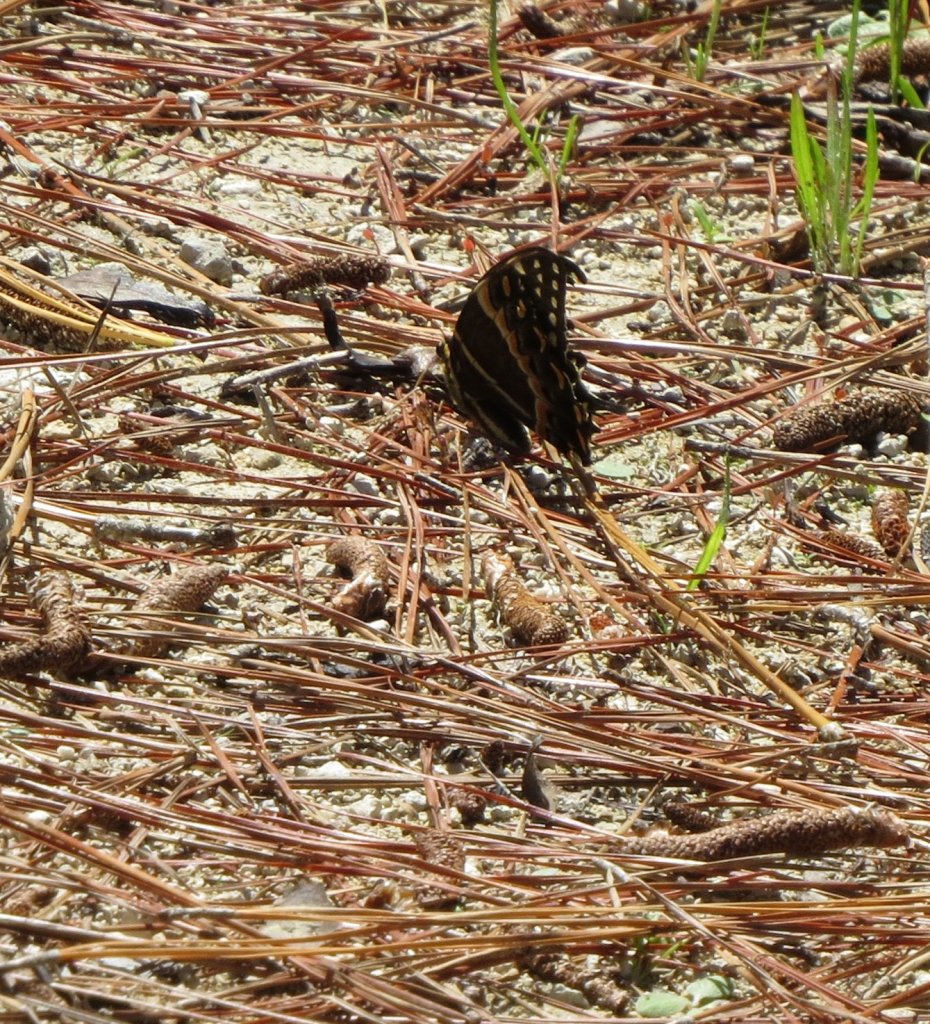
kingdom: Animalia
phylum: Arthropoda
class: Insecta
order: Lepidoptera
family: Papilionidae
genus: Pterourus
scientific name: Pterourus palamedes
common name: Palamedes Swallowtail
